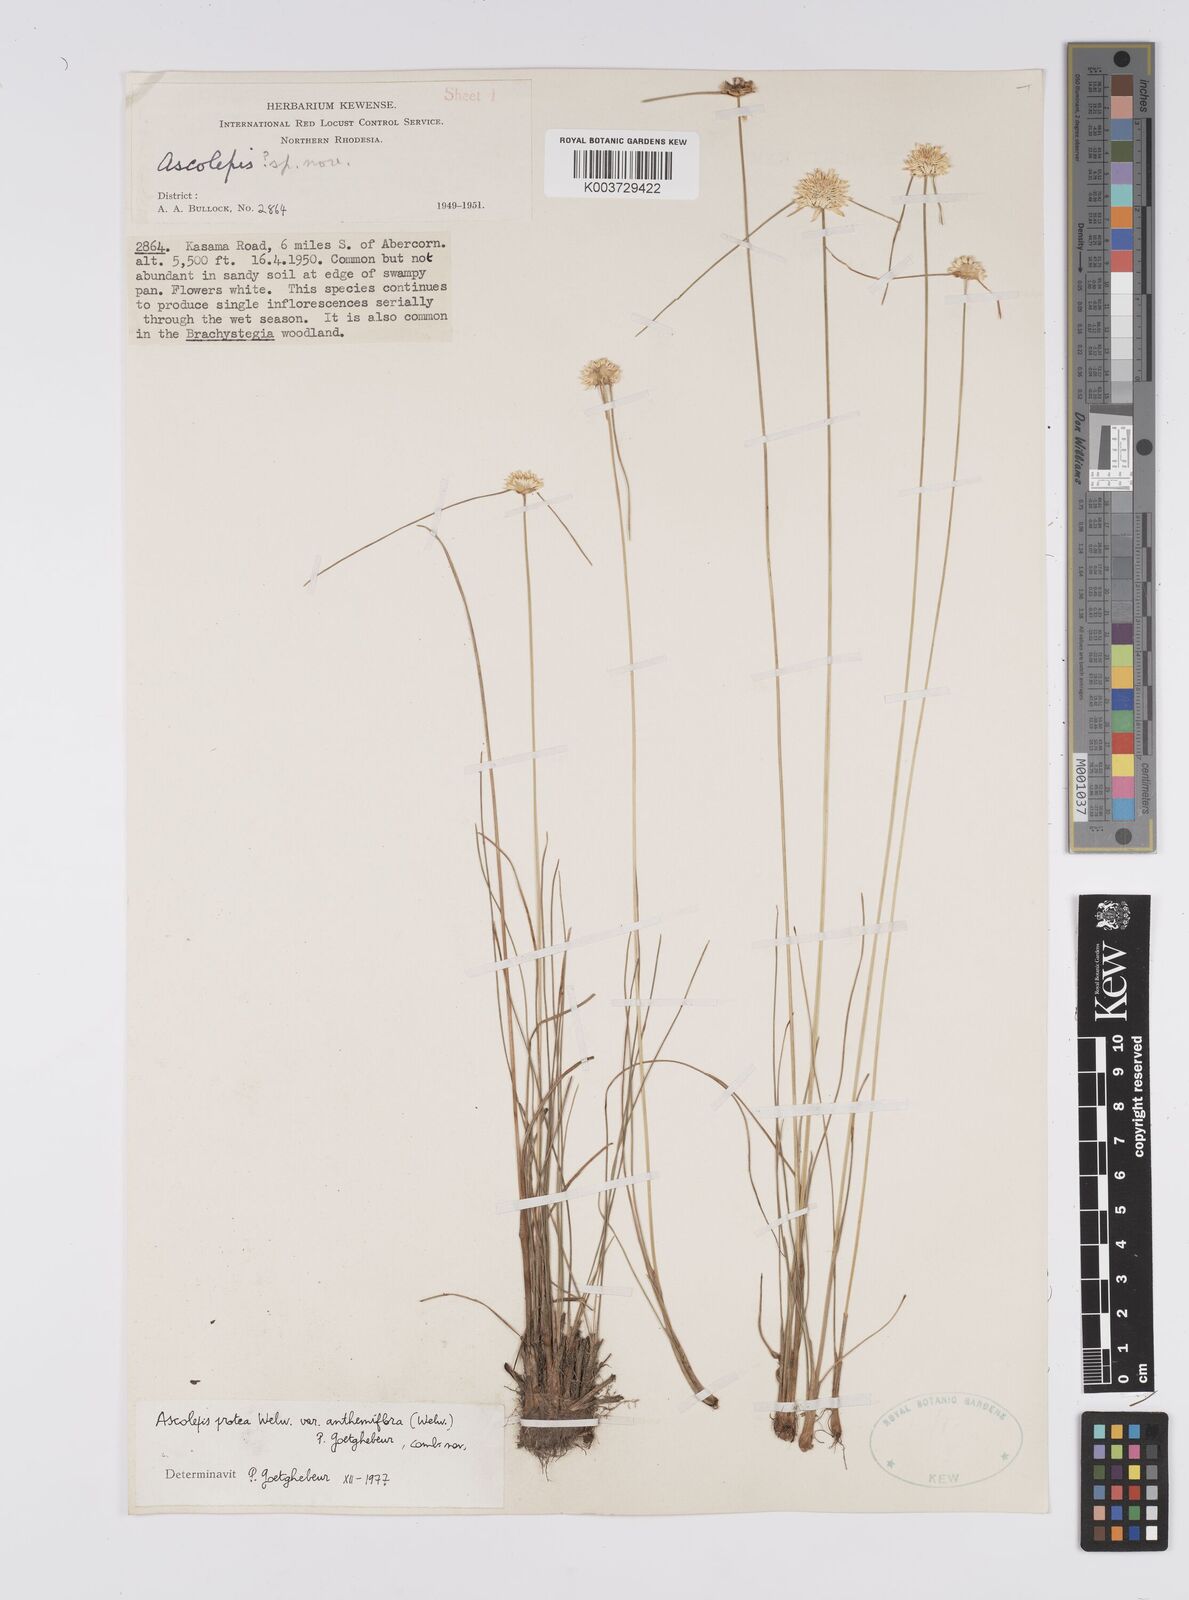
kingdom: Plantae
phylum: Tracheophyta
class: Liliopsida
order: Poales
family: Cyperaceae
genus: Cyperus
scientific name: Cyperus
